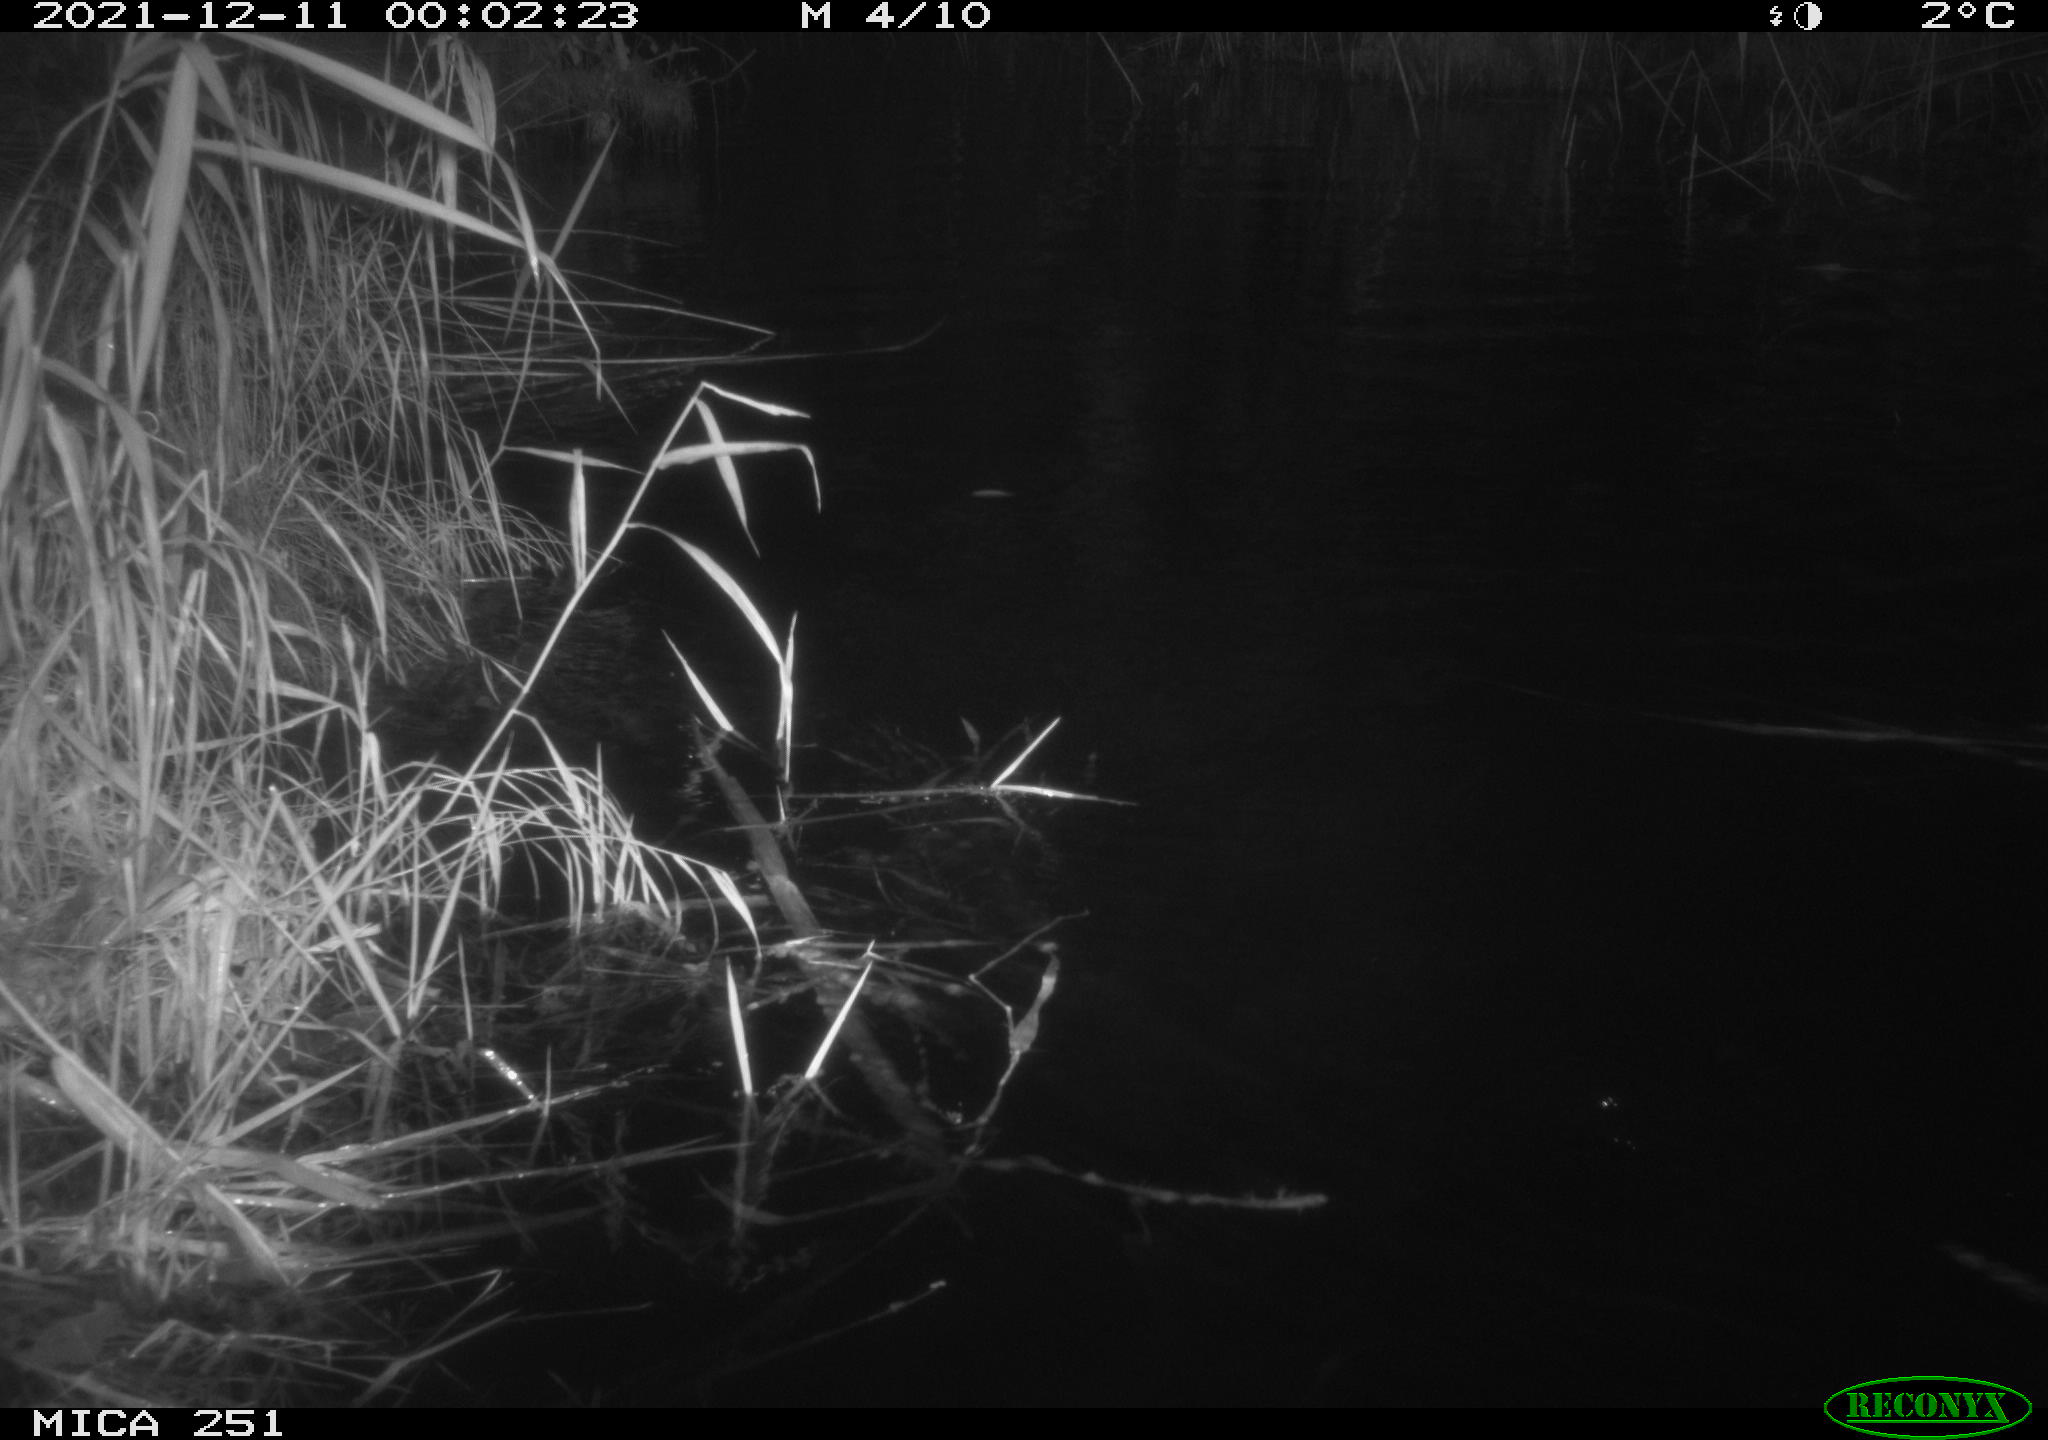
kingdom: Animalia
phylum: Chordata
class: Mammalia
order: Rodentia
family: Myocastoridae
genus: Myocastor
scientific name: Myocastor coypus
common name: Coypu
